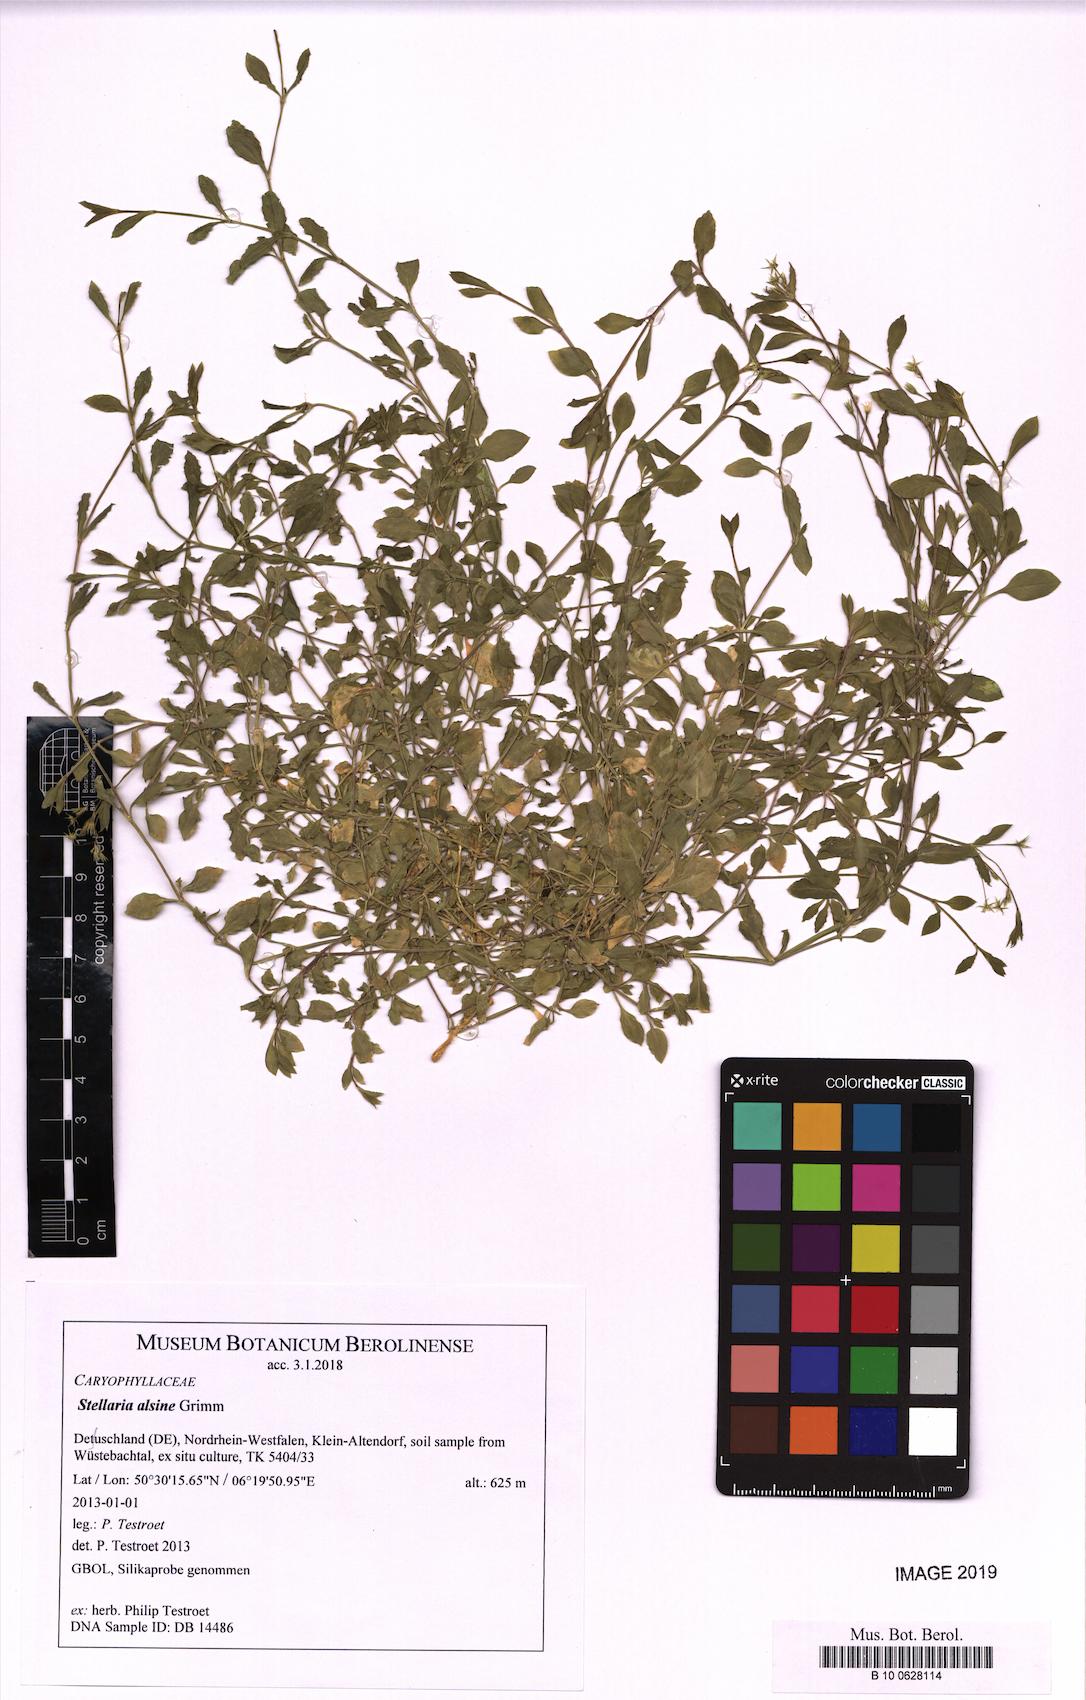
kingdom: Plantae
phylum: Tracheophyta
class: Magnoliopsida
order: Caryophyllales
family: Caryophyllaceae
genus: Stellaria
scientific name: Stellaria alsine
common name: Bog stitchwort
